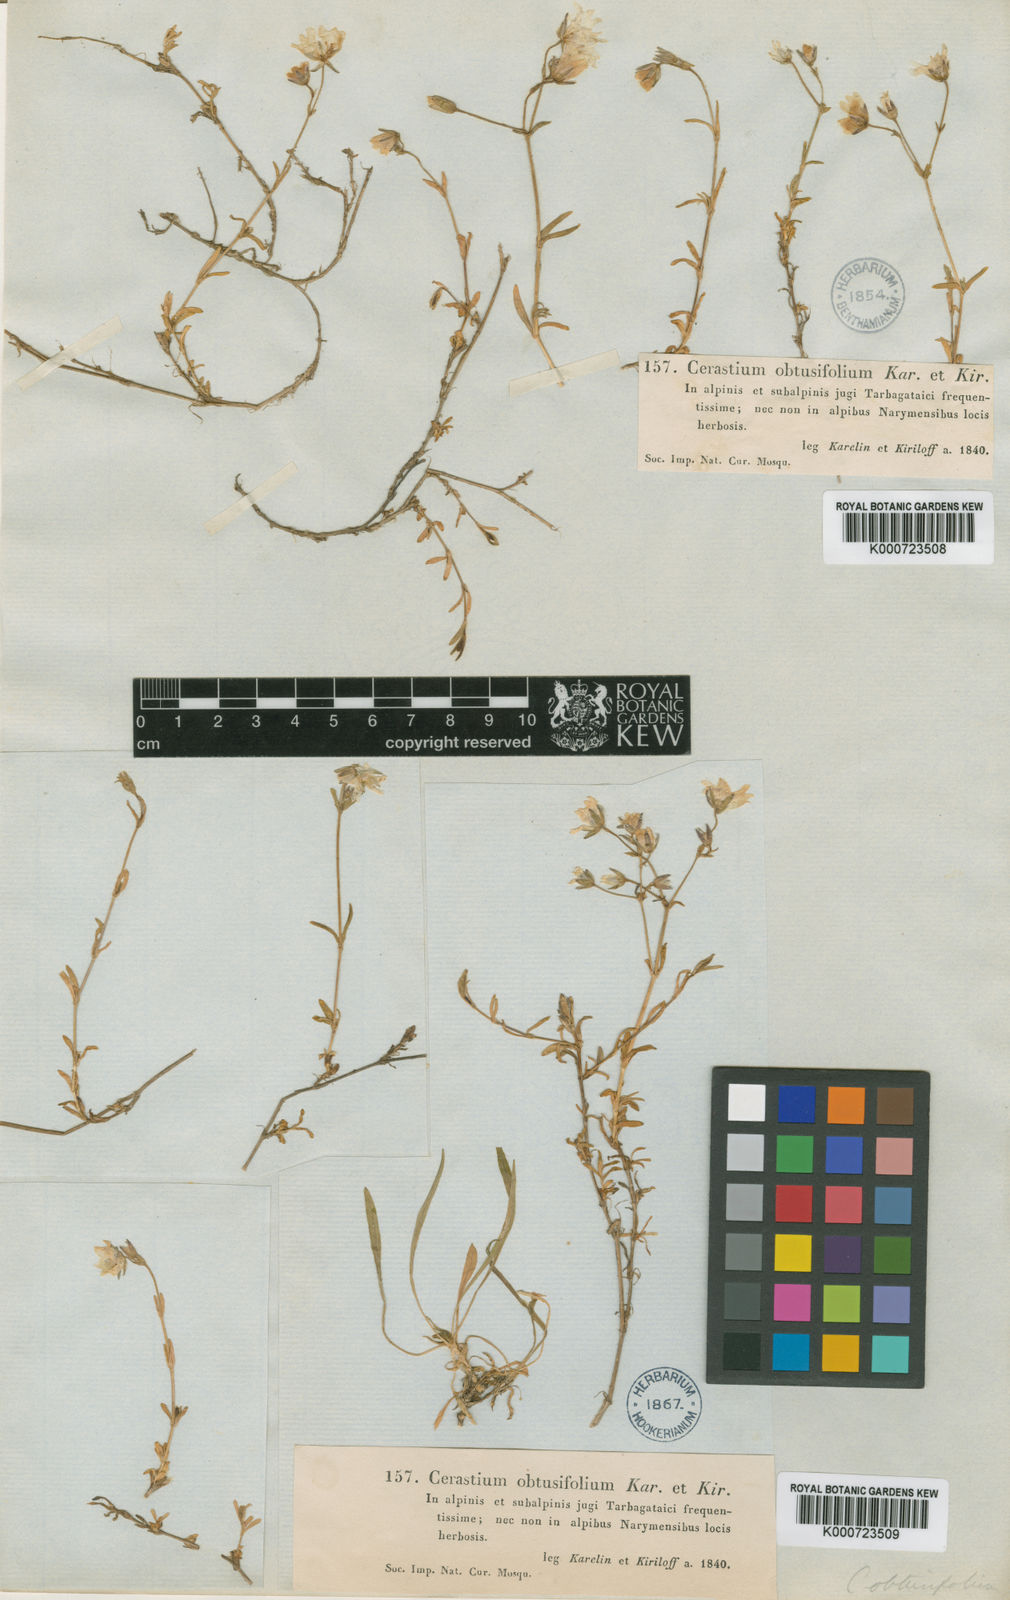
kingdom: Plantae
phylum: Tracheophyta
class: Magnoliopsida
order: Caryophyllales
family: Caryophyllaceae
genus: Dichodon
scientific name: Dichodon cerastoides
